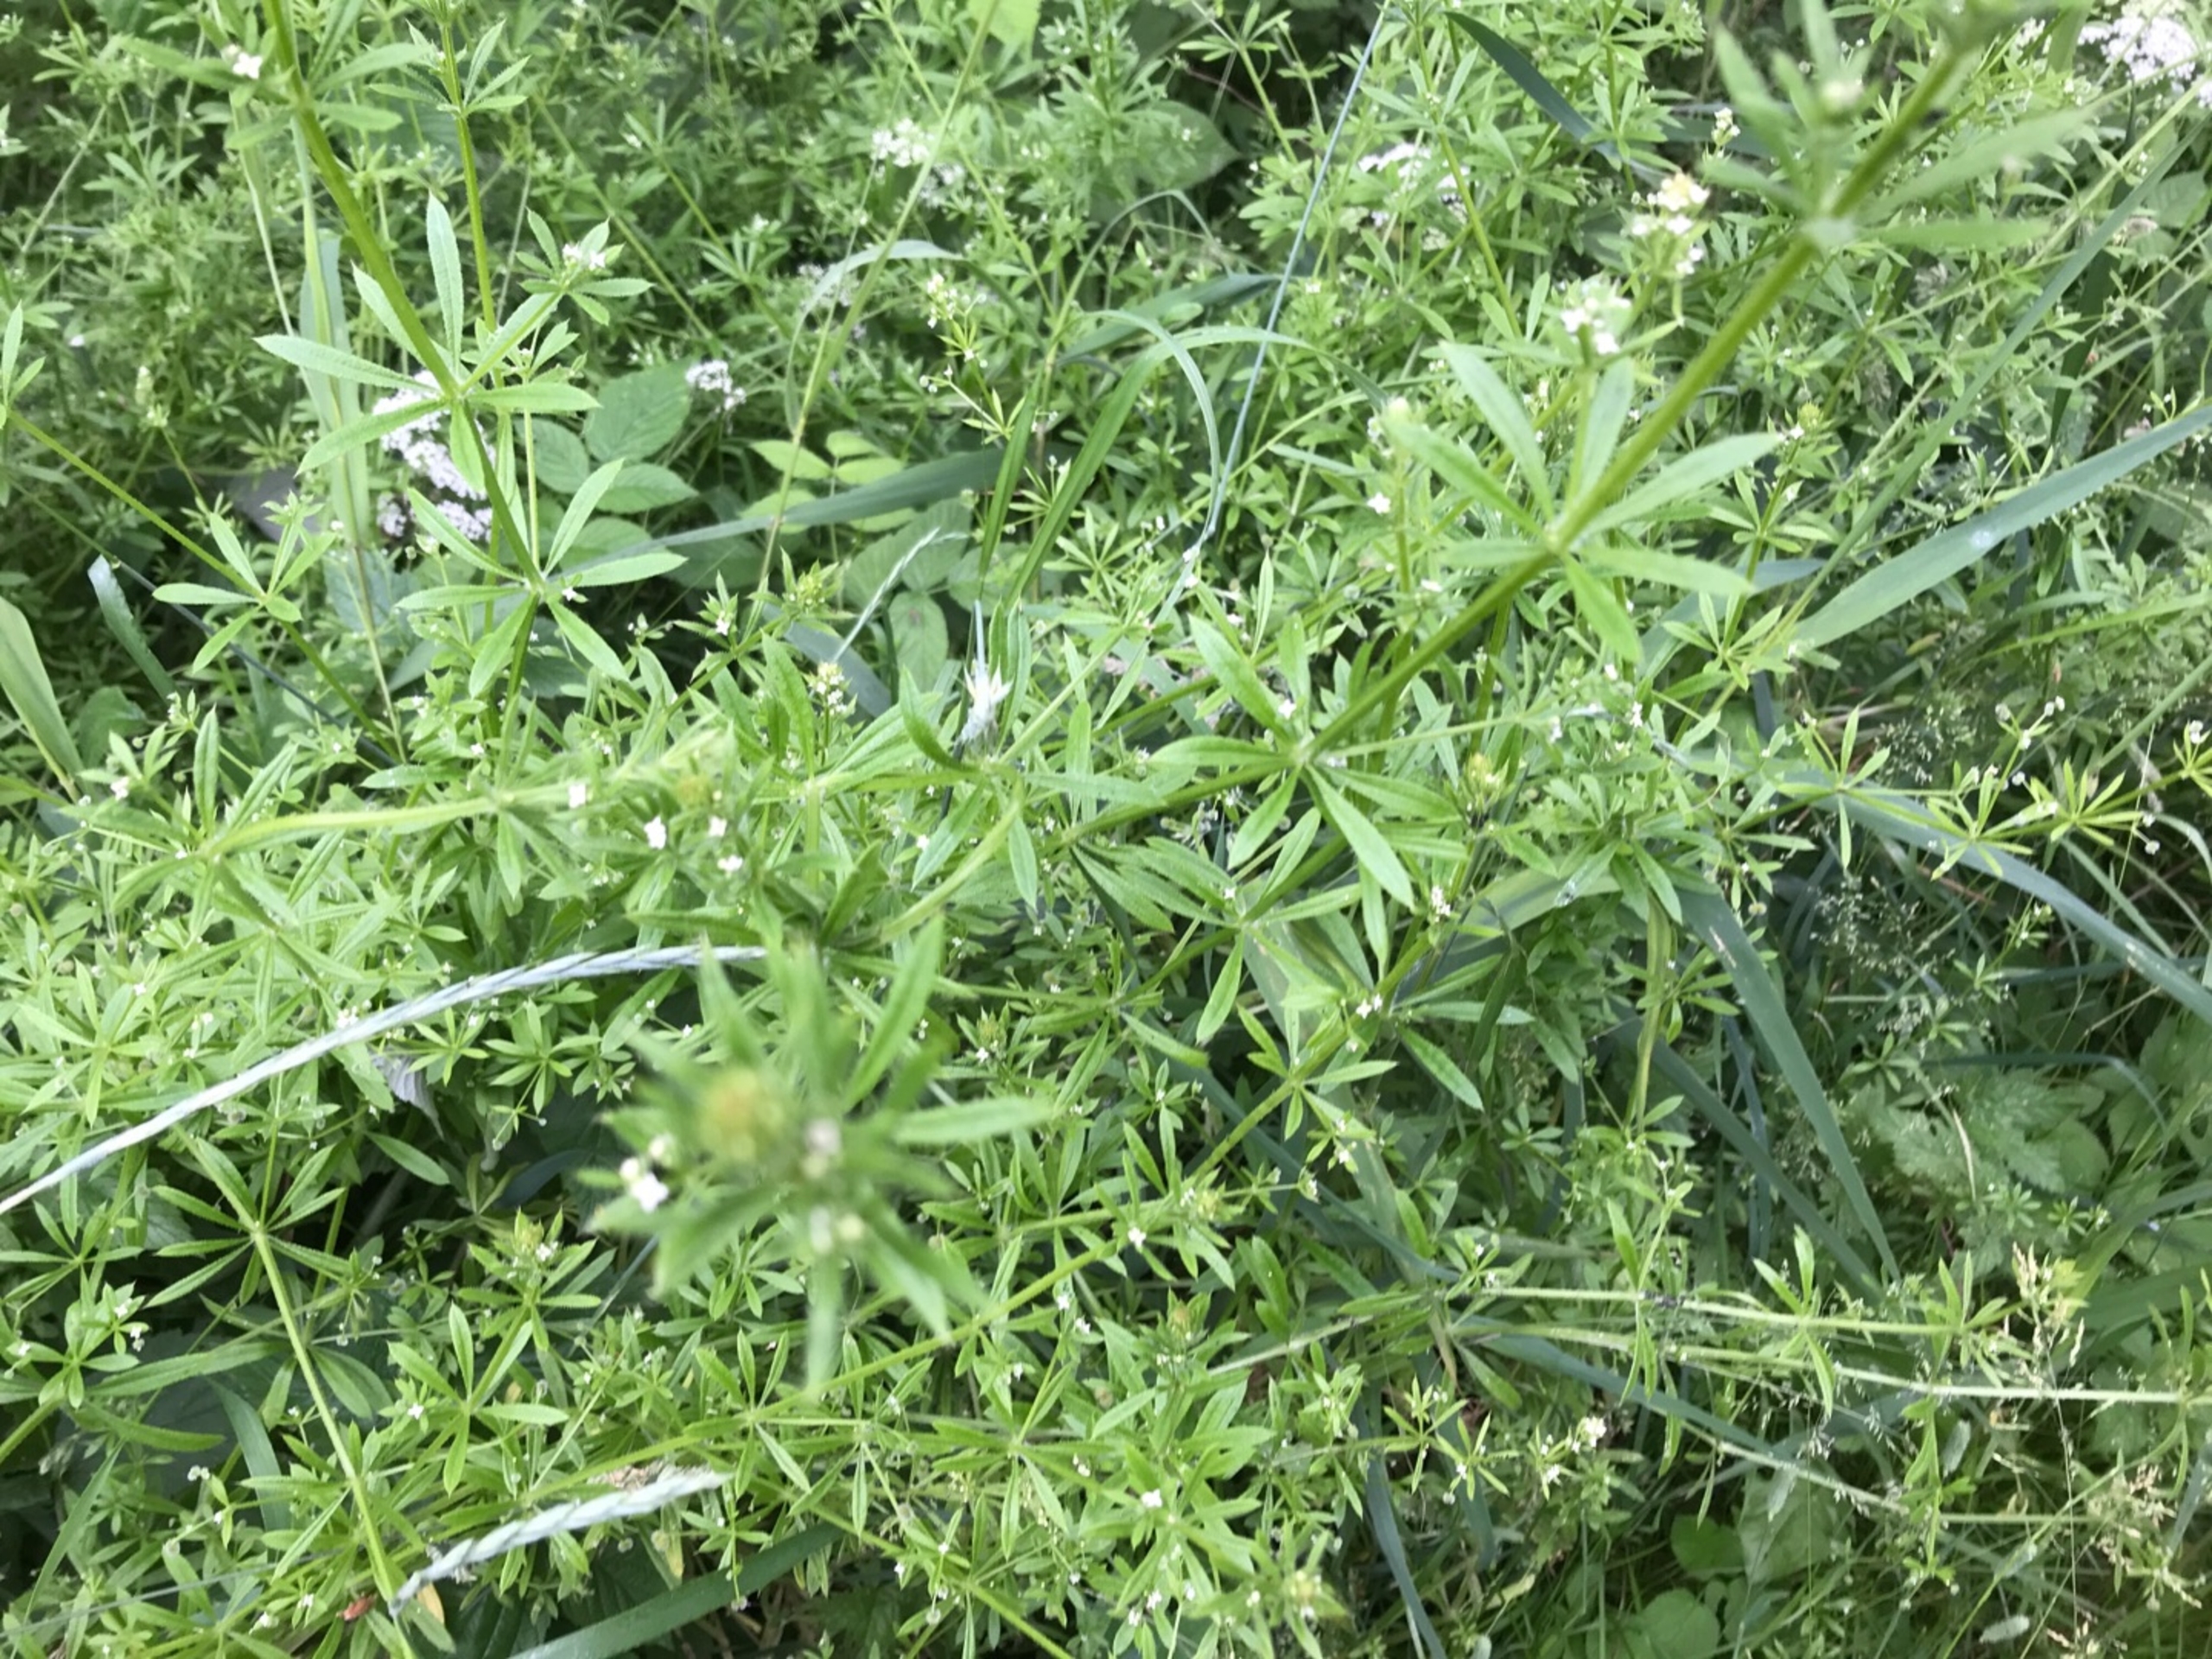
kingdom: Plantae
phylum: Tracheophyta
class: Magnoliopsida
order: Gentianales
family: Rubiaceae
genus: Galium
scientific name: Galium aparine
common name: Burre-snerre
